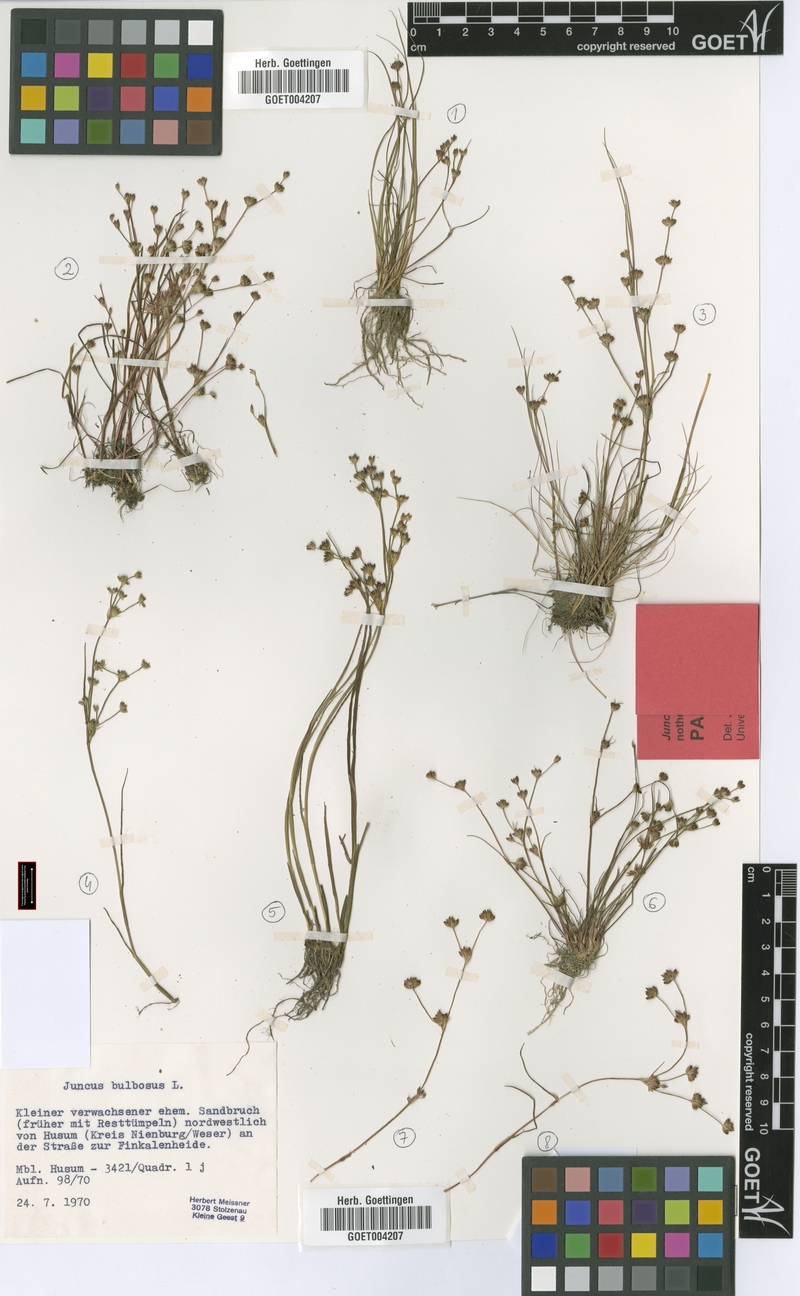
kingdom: Plantae
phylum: Tracheophyta
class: Liliopsida
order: Poales
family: Juncaceae
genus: Juncus
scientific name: Juncus bulbosus
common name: Bulbous rush
